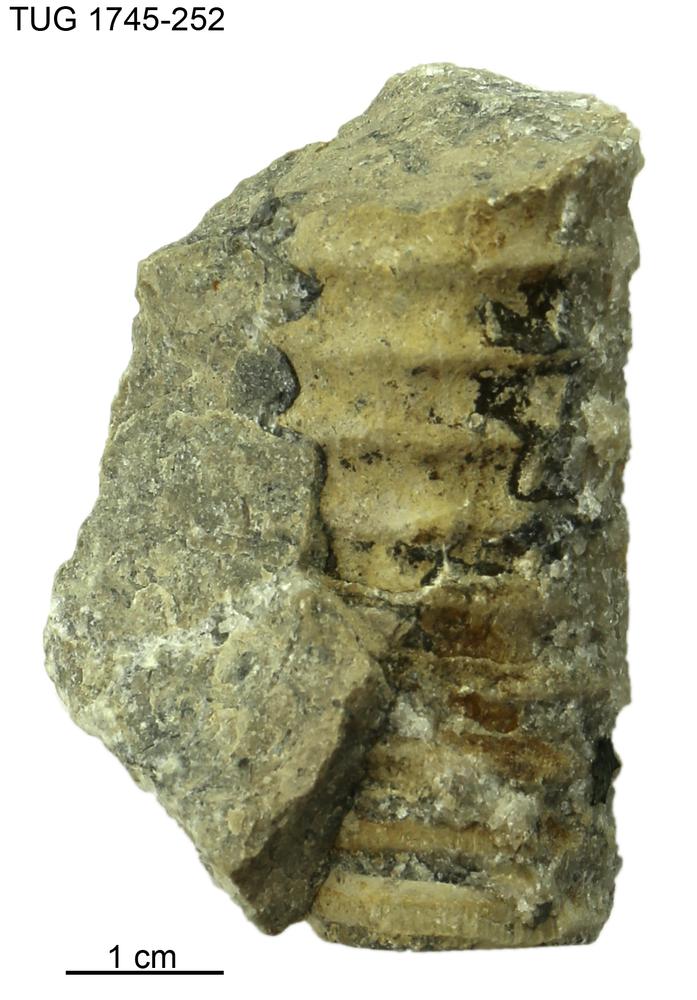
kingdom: Animalia
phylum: Mollusca
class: Cephalopoda
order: Orthocerida
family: Pseudorthoceratidae
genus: Spyroceras
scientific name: Spyroceras
